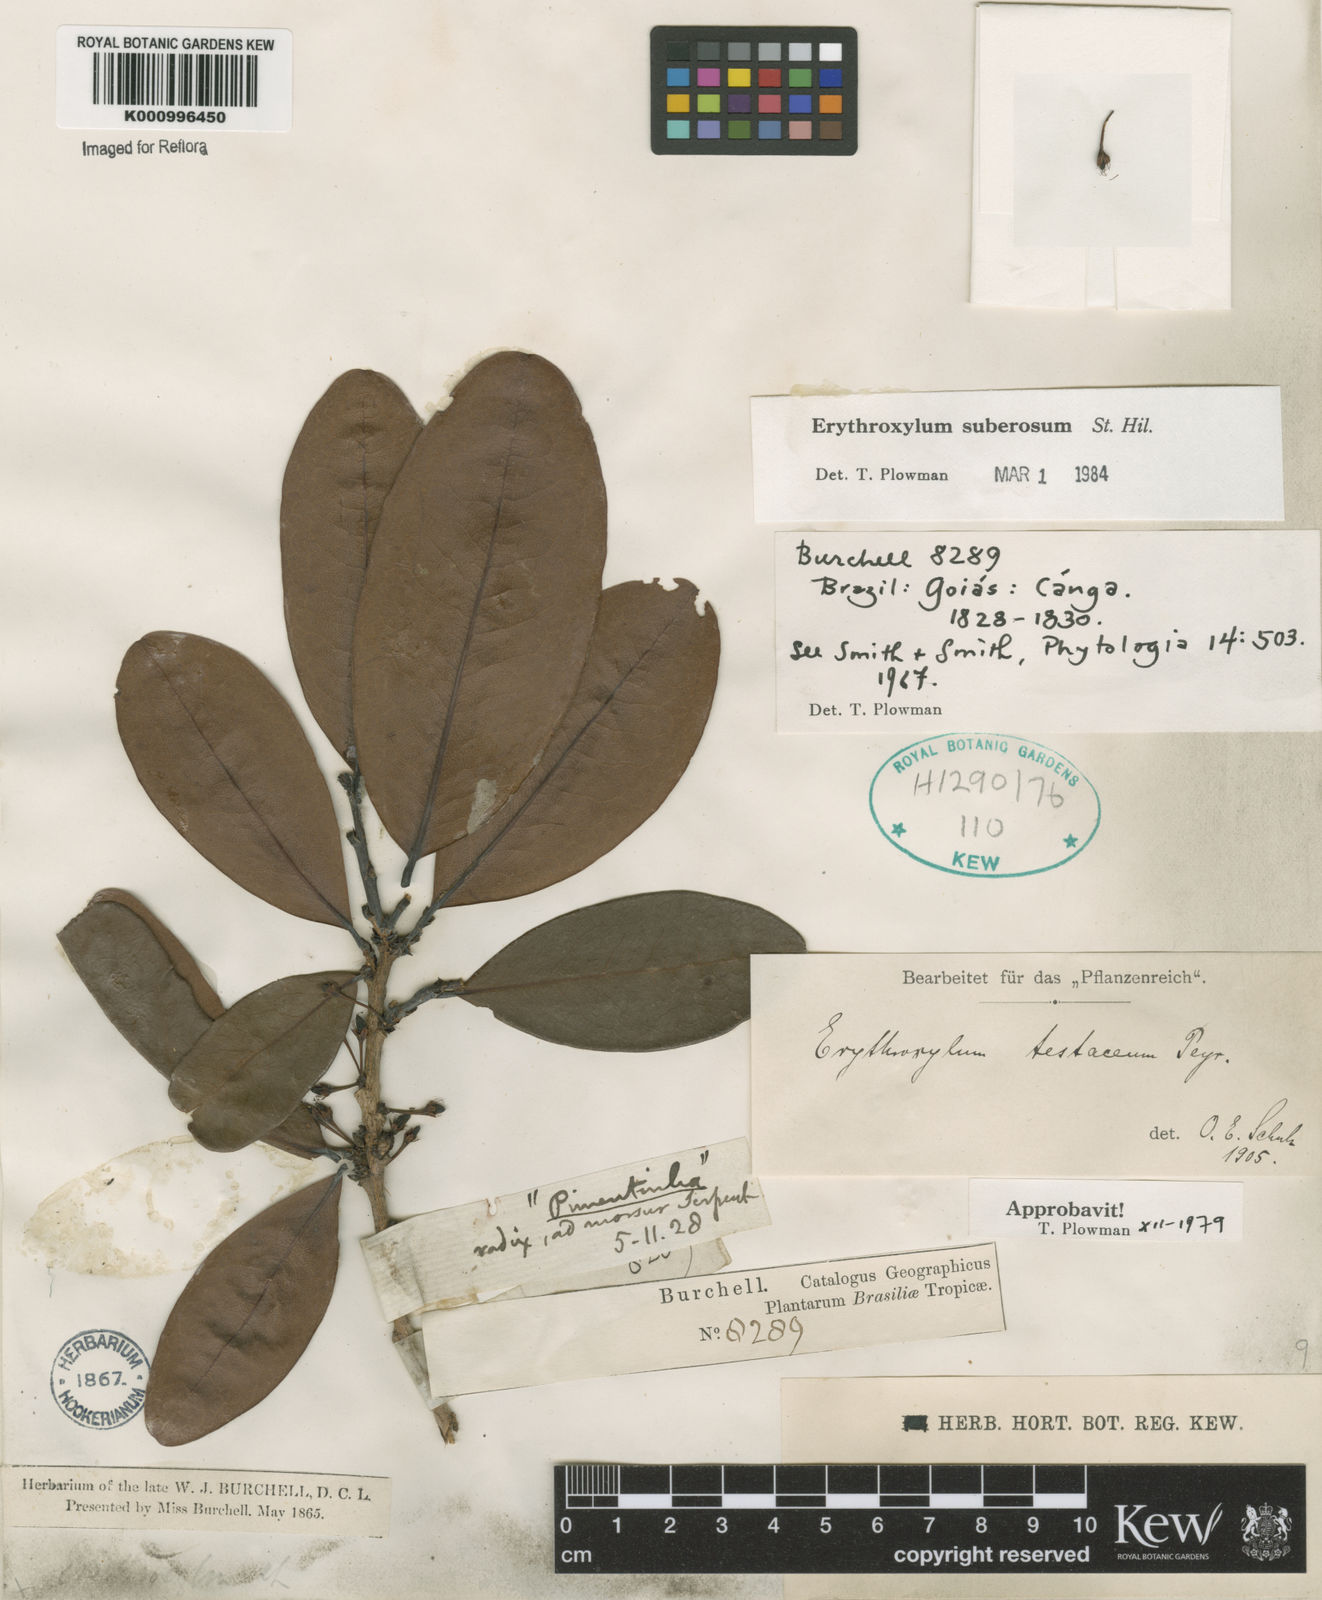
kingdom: Plantae
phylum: Tracheophyta
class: Magnoliopsida
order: Malpighiales
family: Erythroxylaceae
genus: Erythroxylum
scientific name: Erythroxylum suberosum
